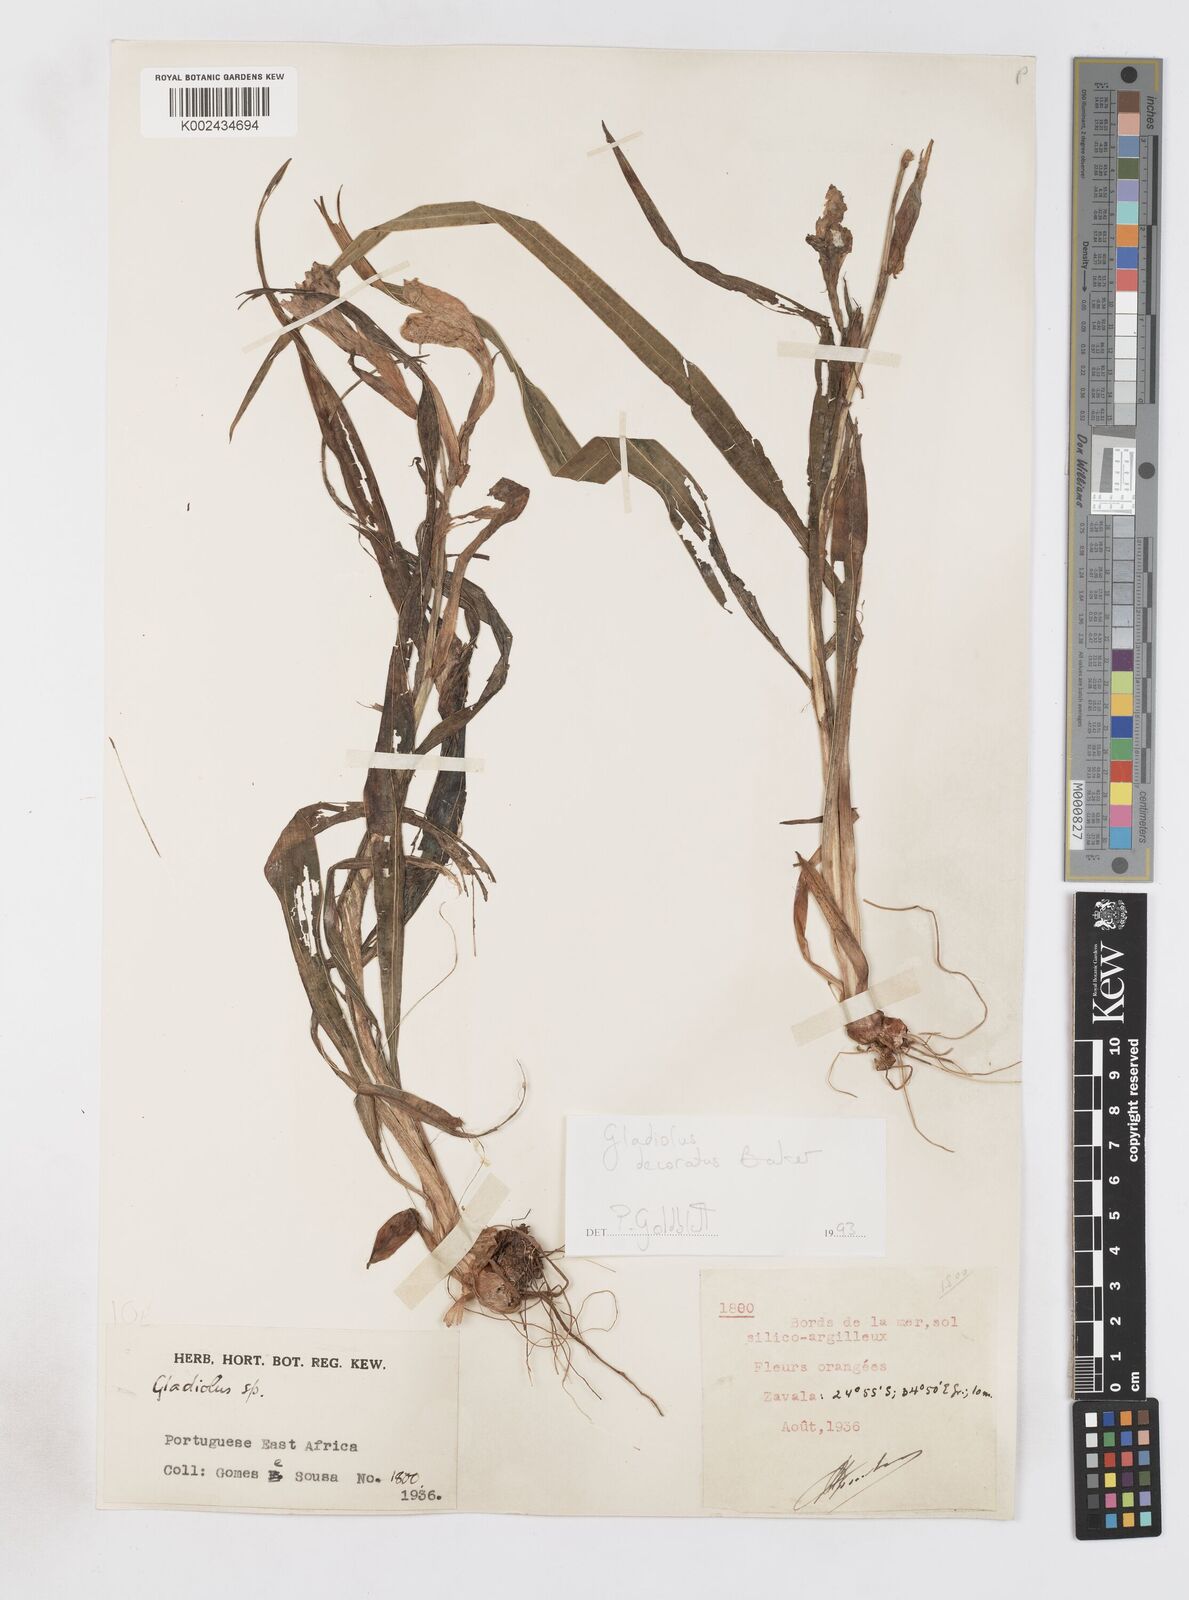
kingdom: Plantae
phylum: Tracheophyta
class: Liliopsida
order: Asparagales
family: Iridaceae
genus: Gladiolus
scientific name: Gladiolus decoratus
